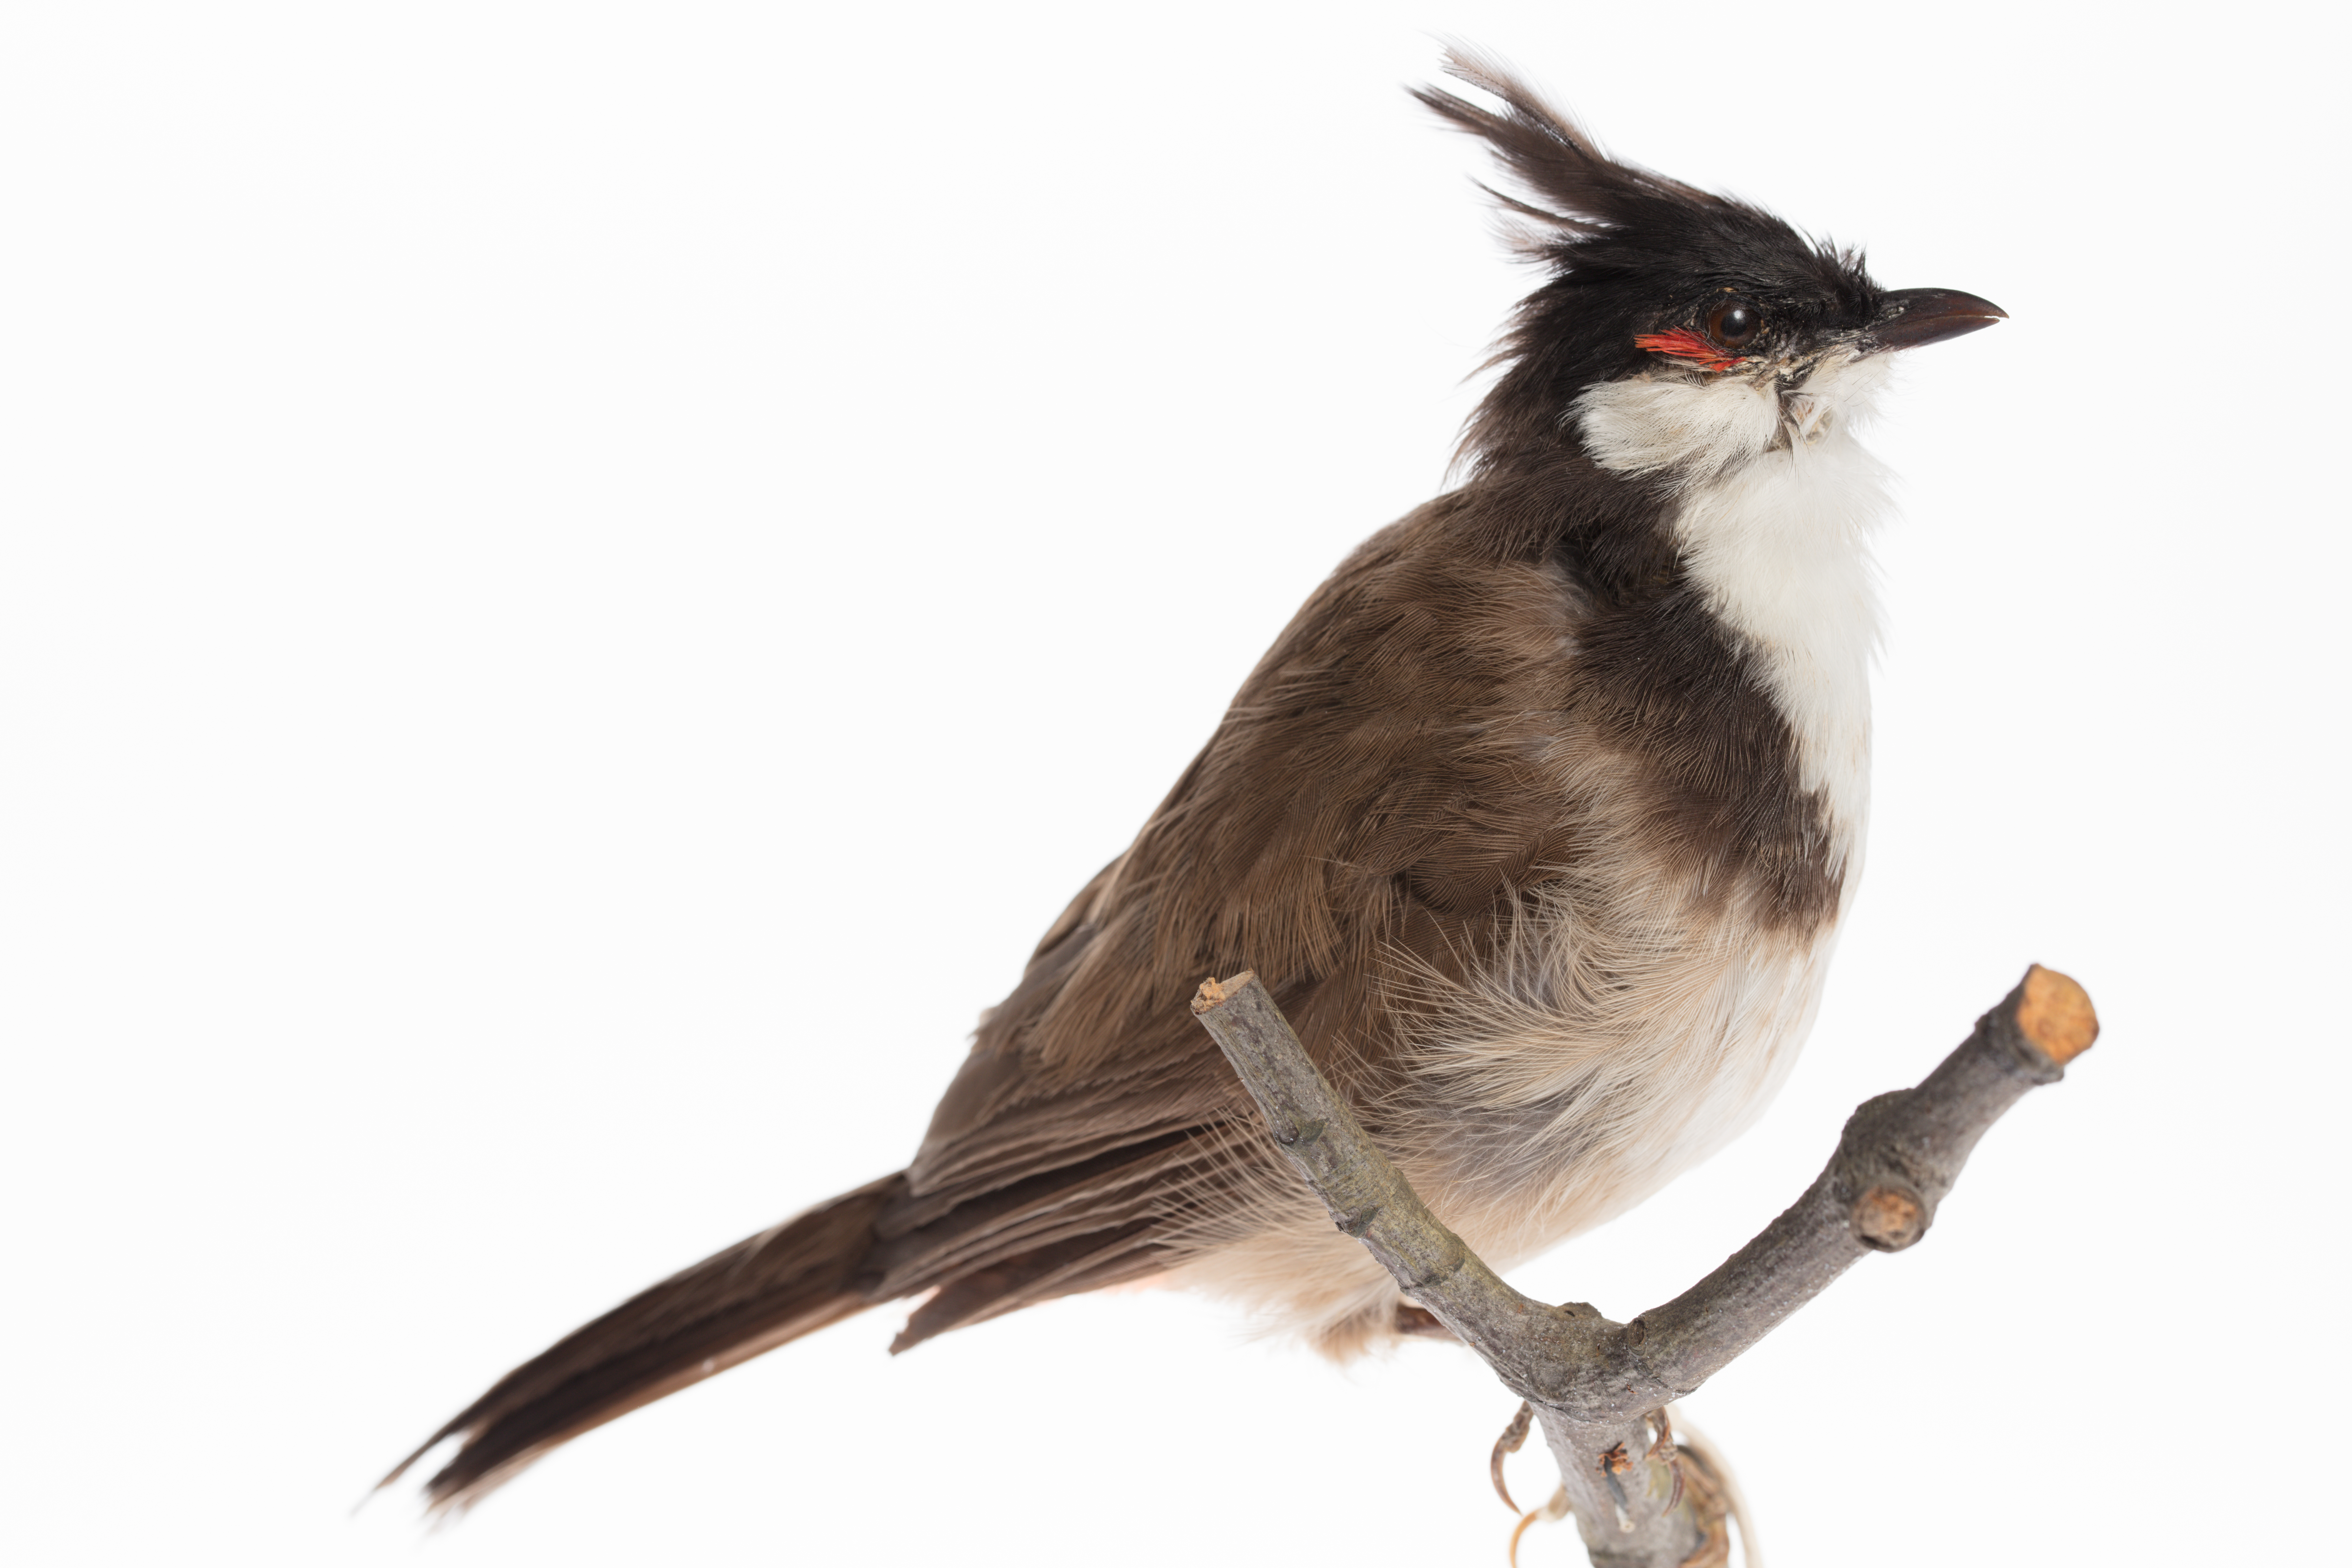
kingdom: Animalia
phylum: Chordata
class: Aves
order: Passeriformes
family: Pycnonotidae
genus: Pycnonotus
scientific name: Pycnonotus jocosus
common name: Red-whiskered bulbul
